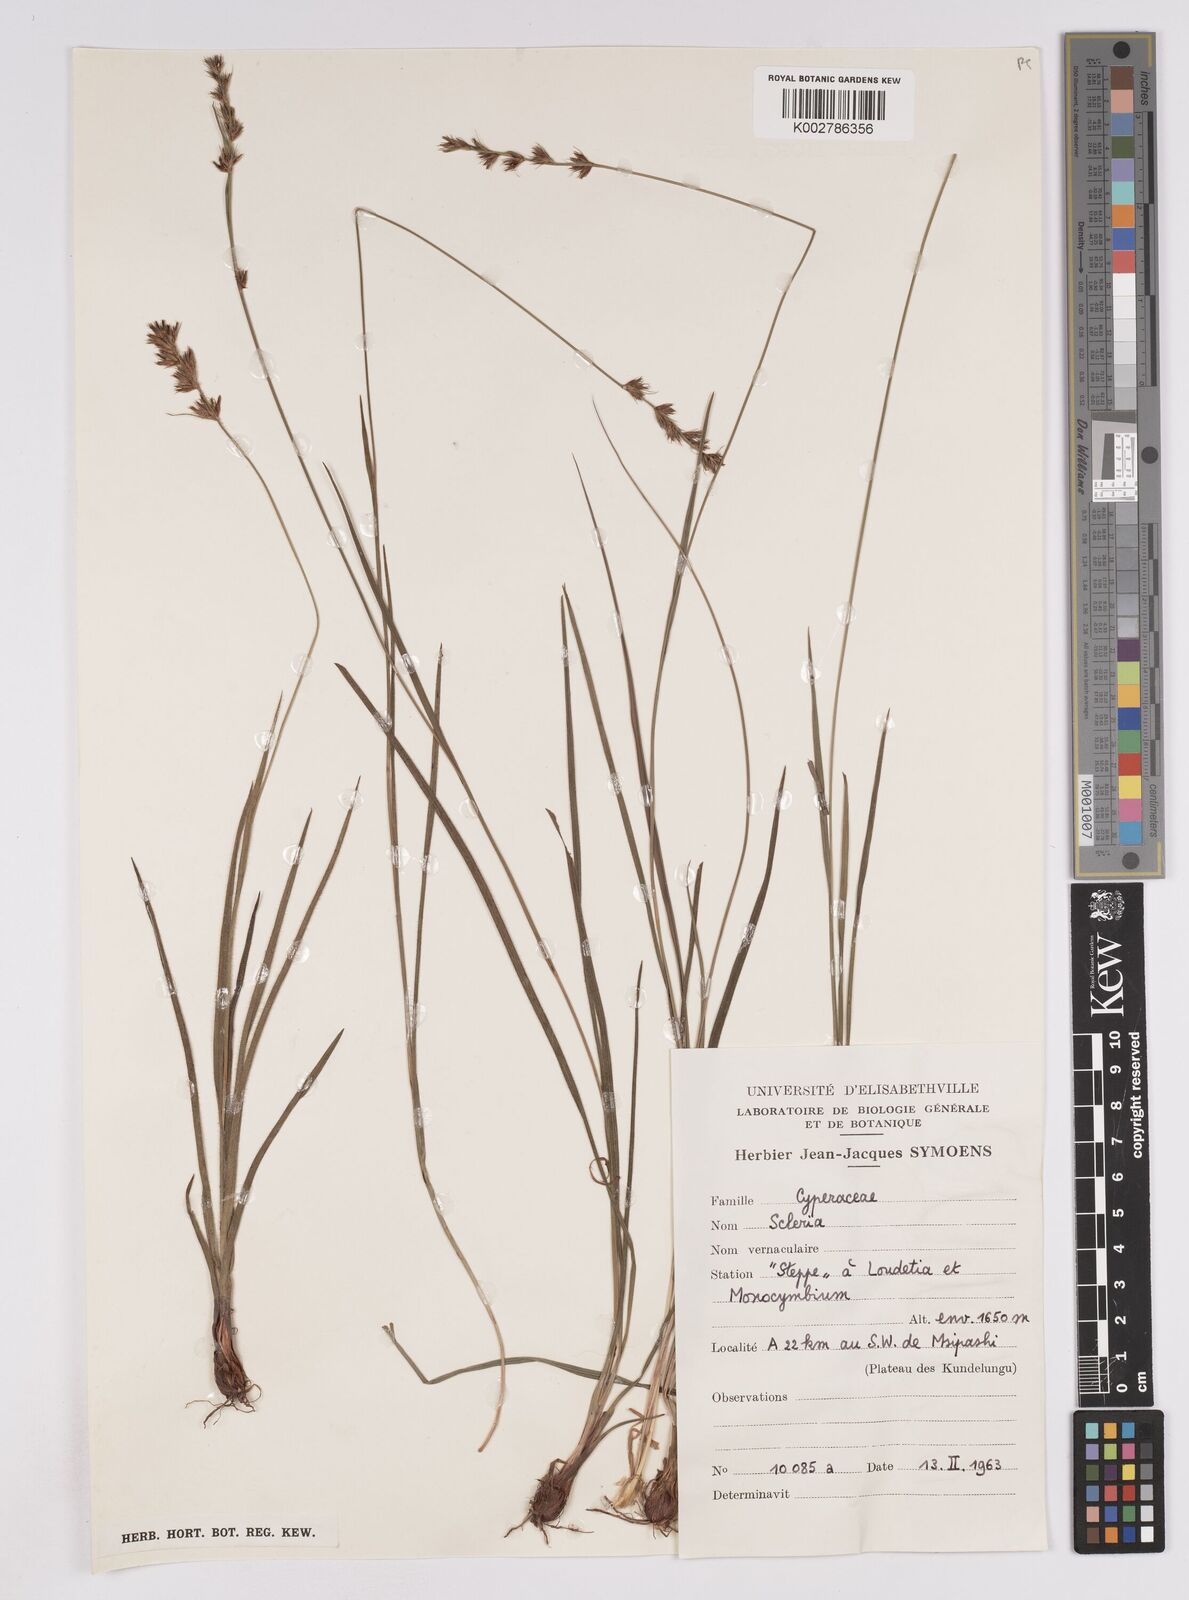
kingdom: Plantae
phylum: Tracheophyta
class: Liliopsida
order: Poales
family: Cyperaceae
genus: Scleria
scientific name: Scleria bulbifera
